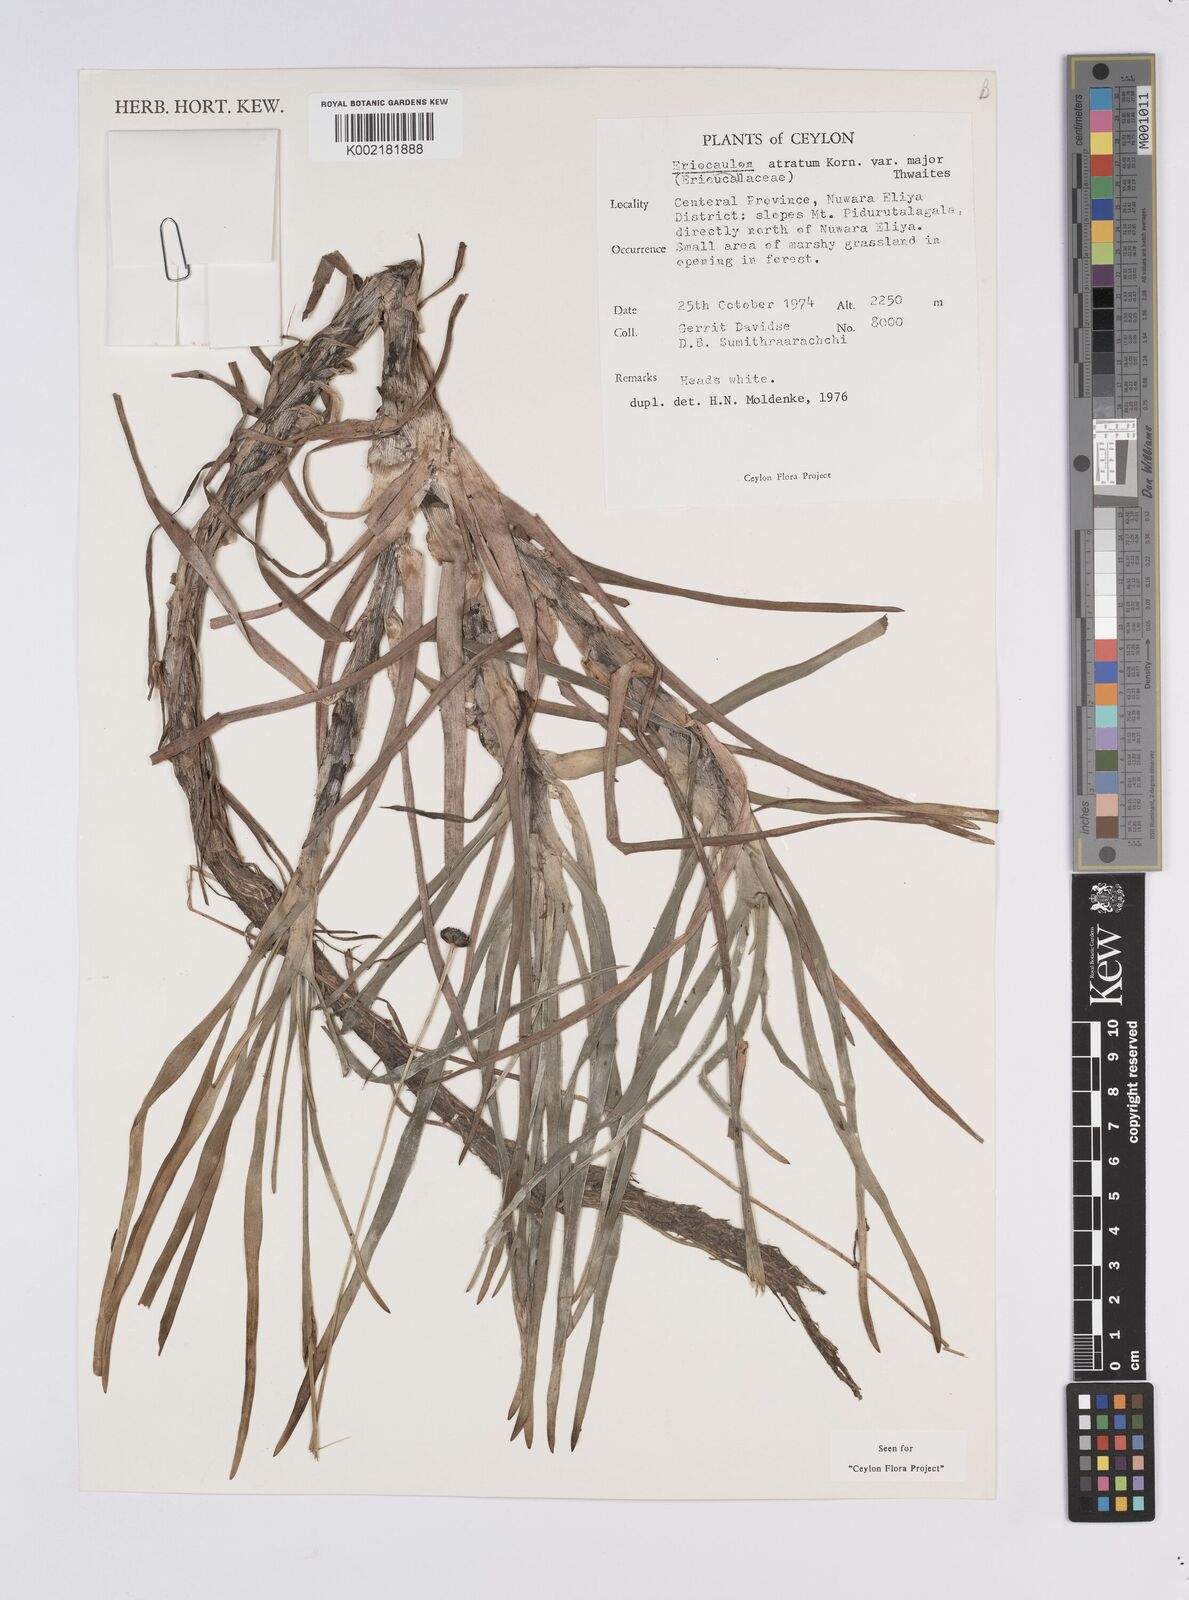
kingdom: Plantae
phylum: Tracheophyta
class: Liliopsida
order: Poales
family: Eriocaulaceae
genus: Eriocaulon
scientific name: Eriocaulon philippo-coburgii
